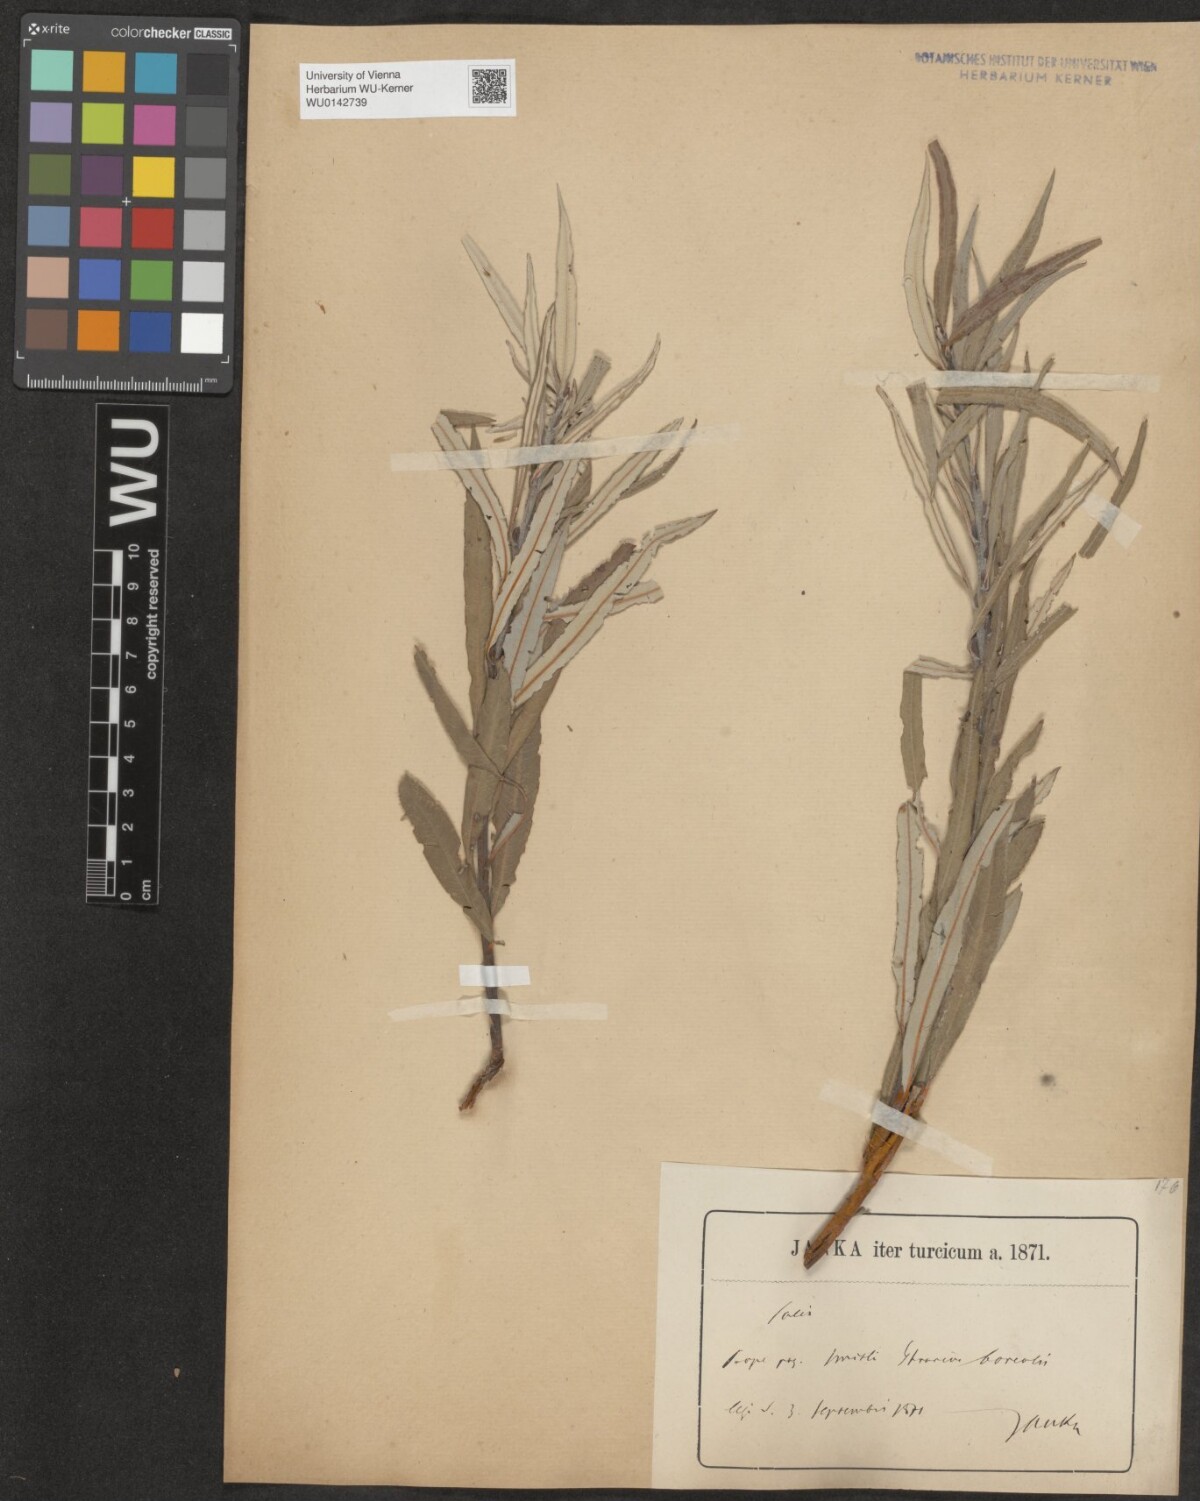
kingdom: Plantae
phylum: Tracheophyta
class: Magnoliopsida
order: Malpighiales
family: Salicaceae
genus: Salix
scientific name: Salix eleagnos
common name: Elaeagnus willow
